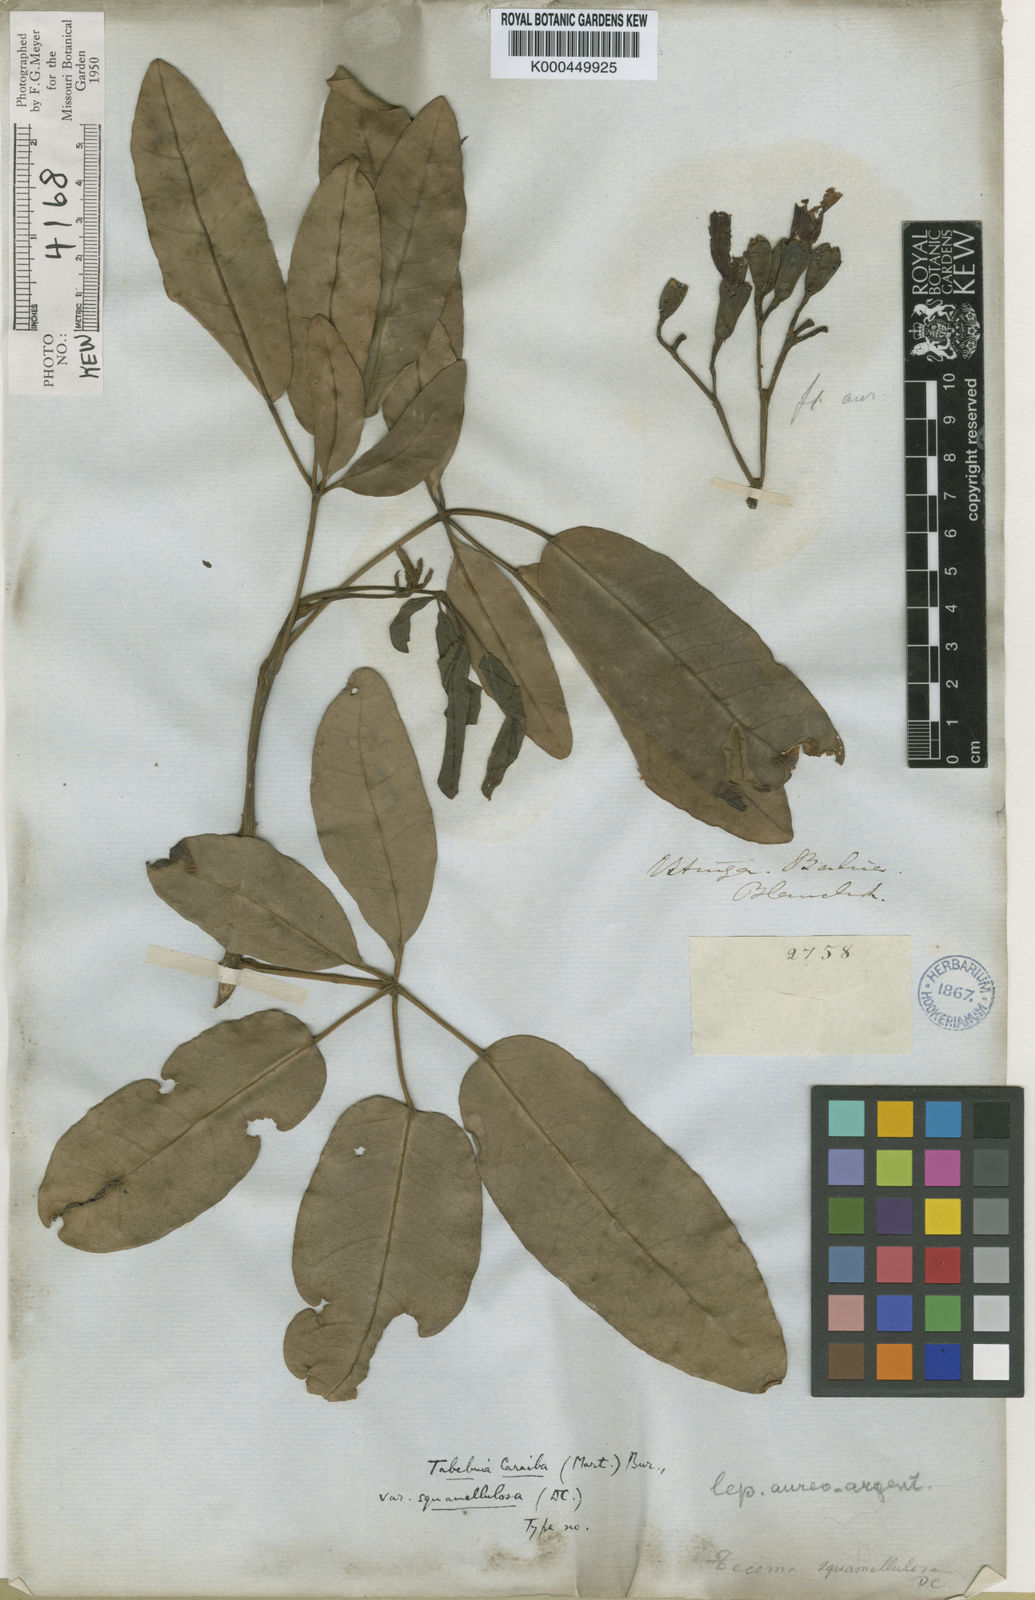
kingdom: Plantae
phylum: Tracheophyta
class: Magnoliopsida
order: Lamiales
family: Bignoniaceae
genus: Tabebuia
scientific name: Tabebuia aurea
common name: Caribbean trumpet-tree
